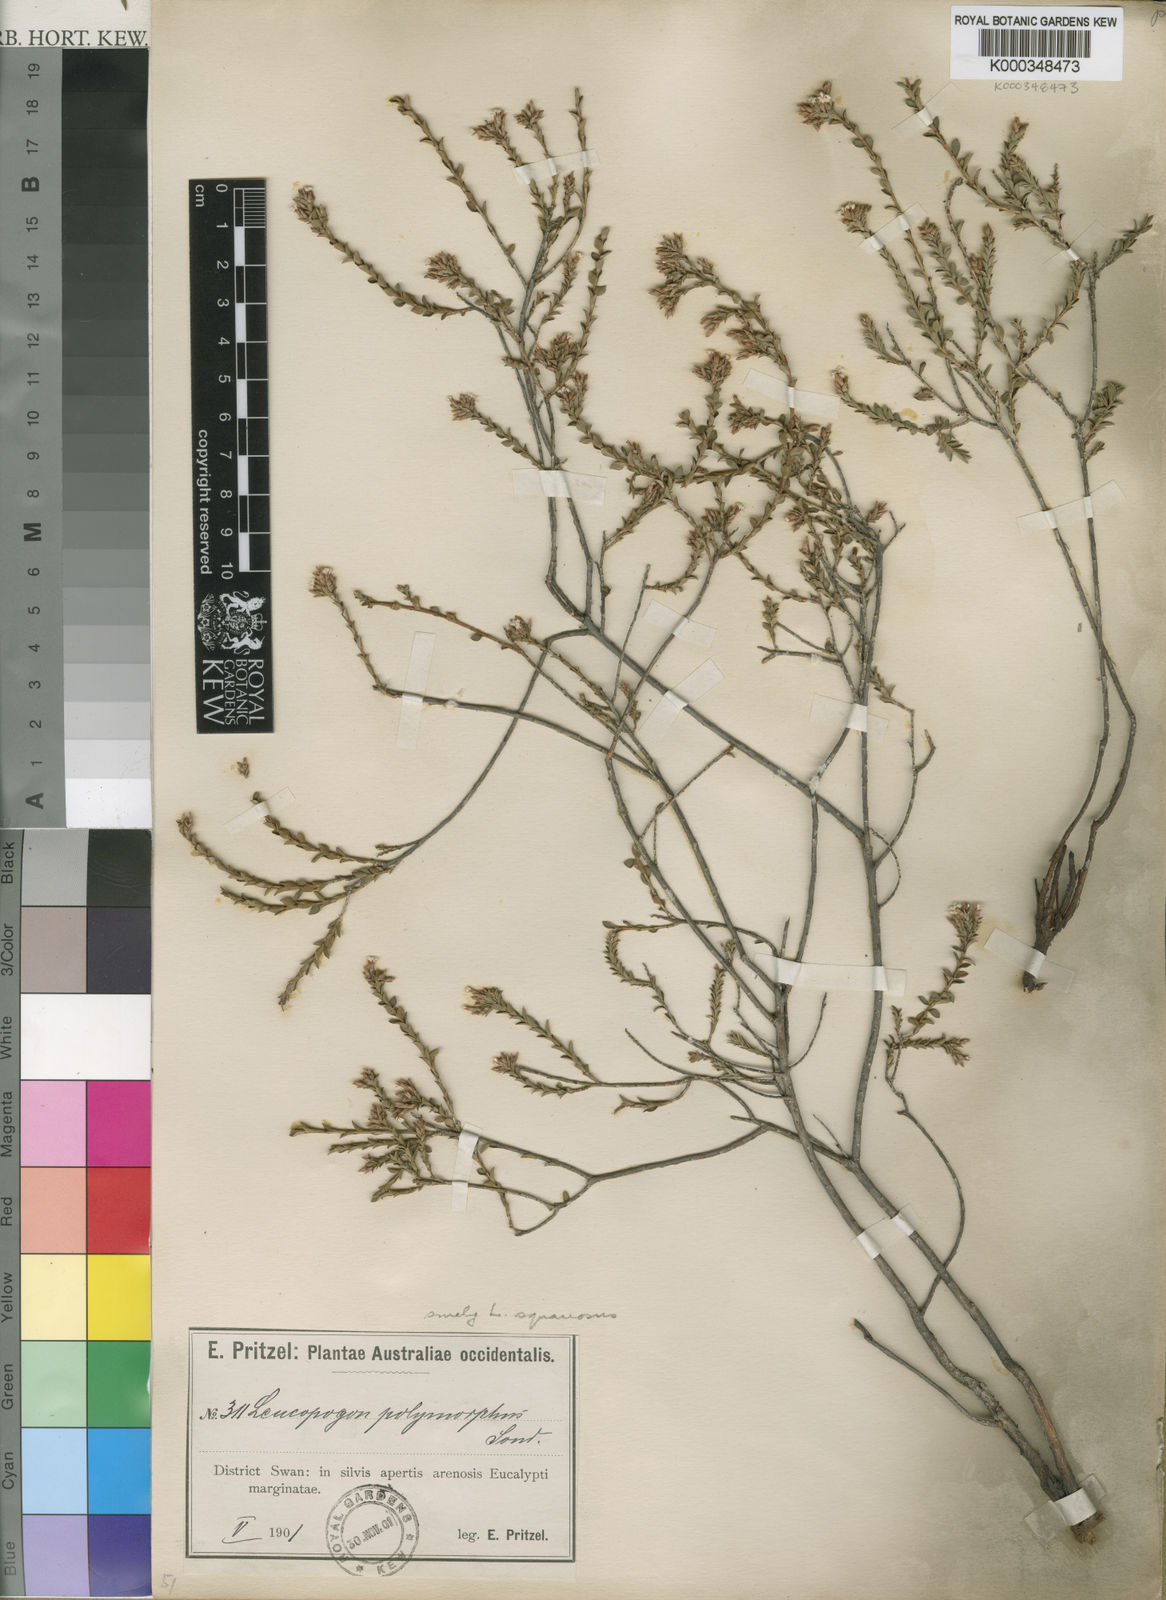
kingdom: Plantae
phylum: Tracheophyta
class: Magnoliopsida
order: Ericales
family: Ericaceae
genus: Leucopogon
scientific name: Leucopogon polymorphus
